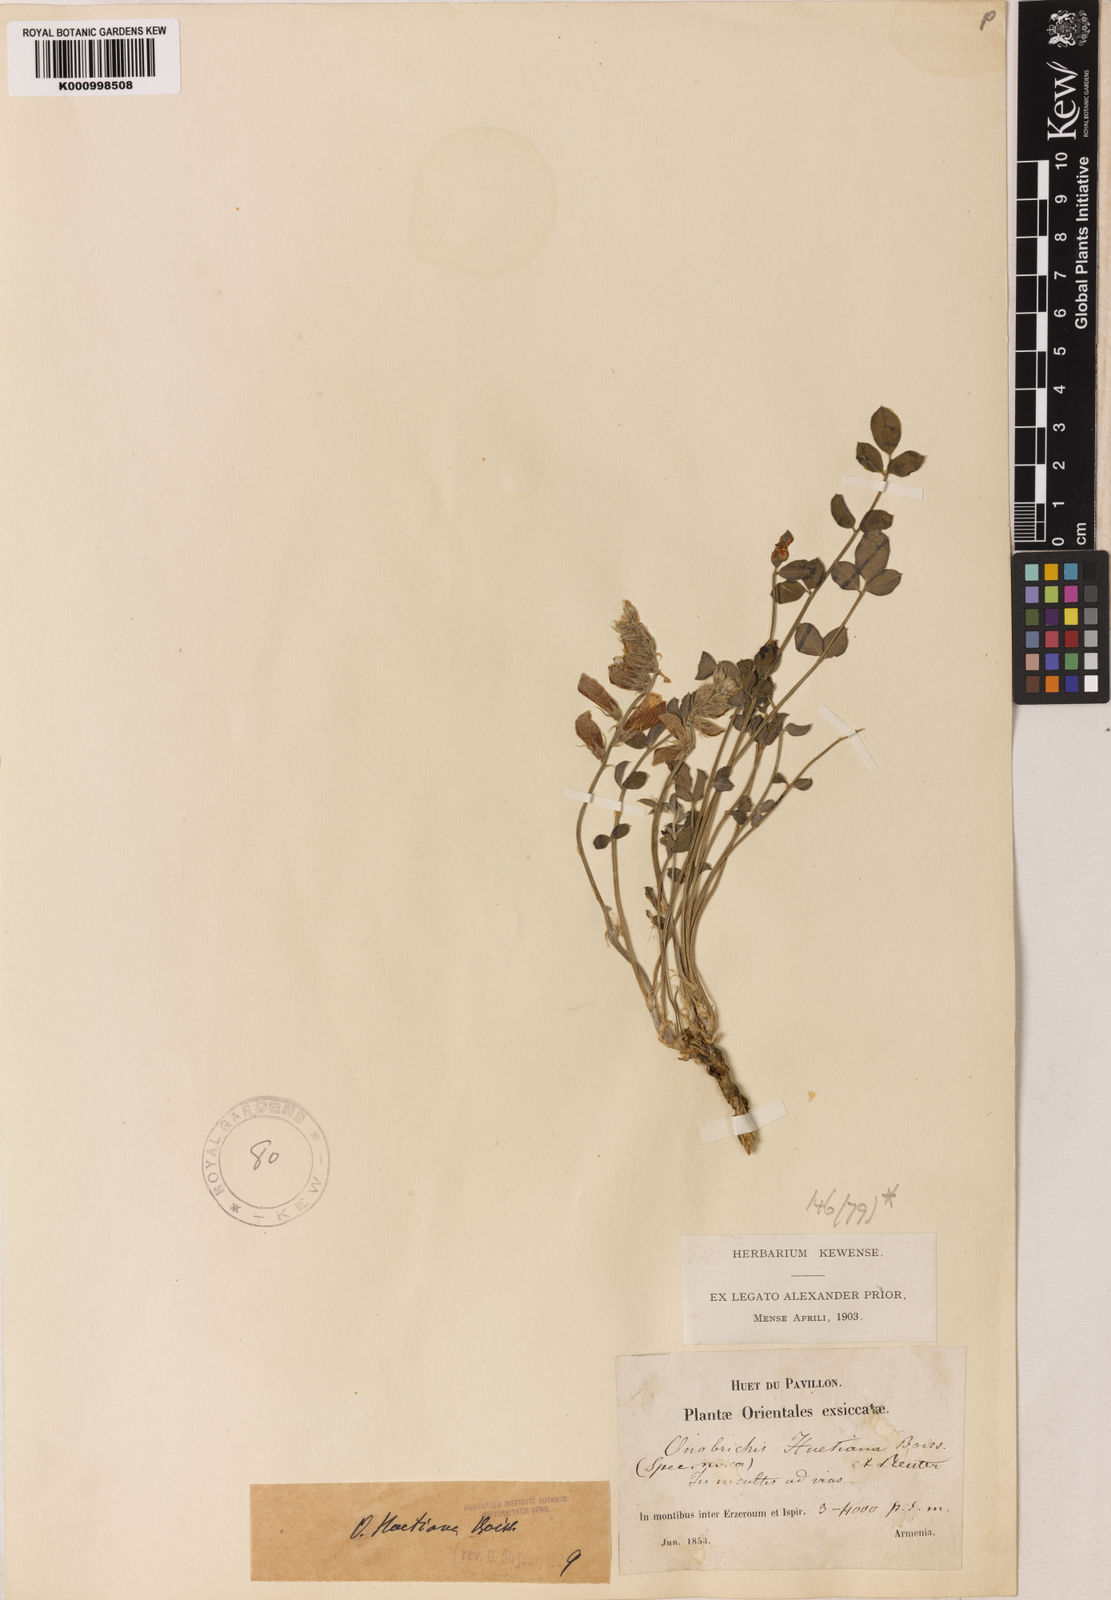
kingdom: Plantae
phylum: Tracheophyta
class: Magnoliopsida
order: Fabales
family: Fabaceae
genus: Onobrychis
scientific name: Onobrychis huetiana
